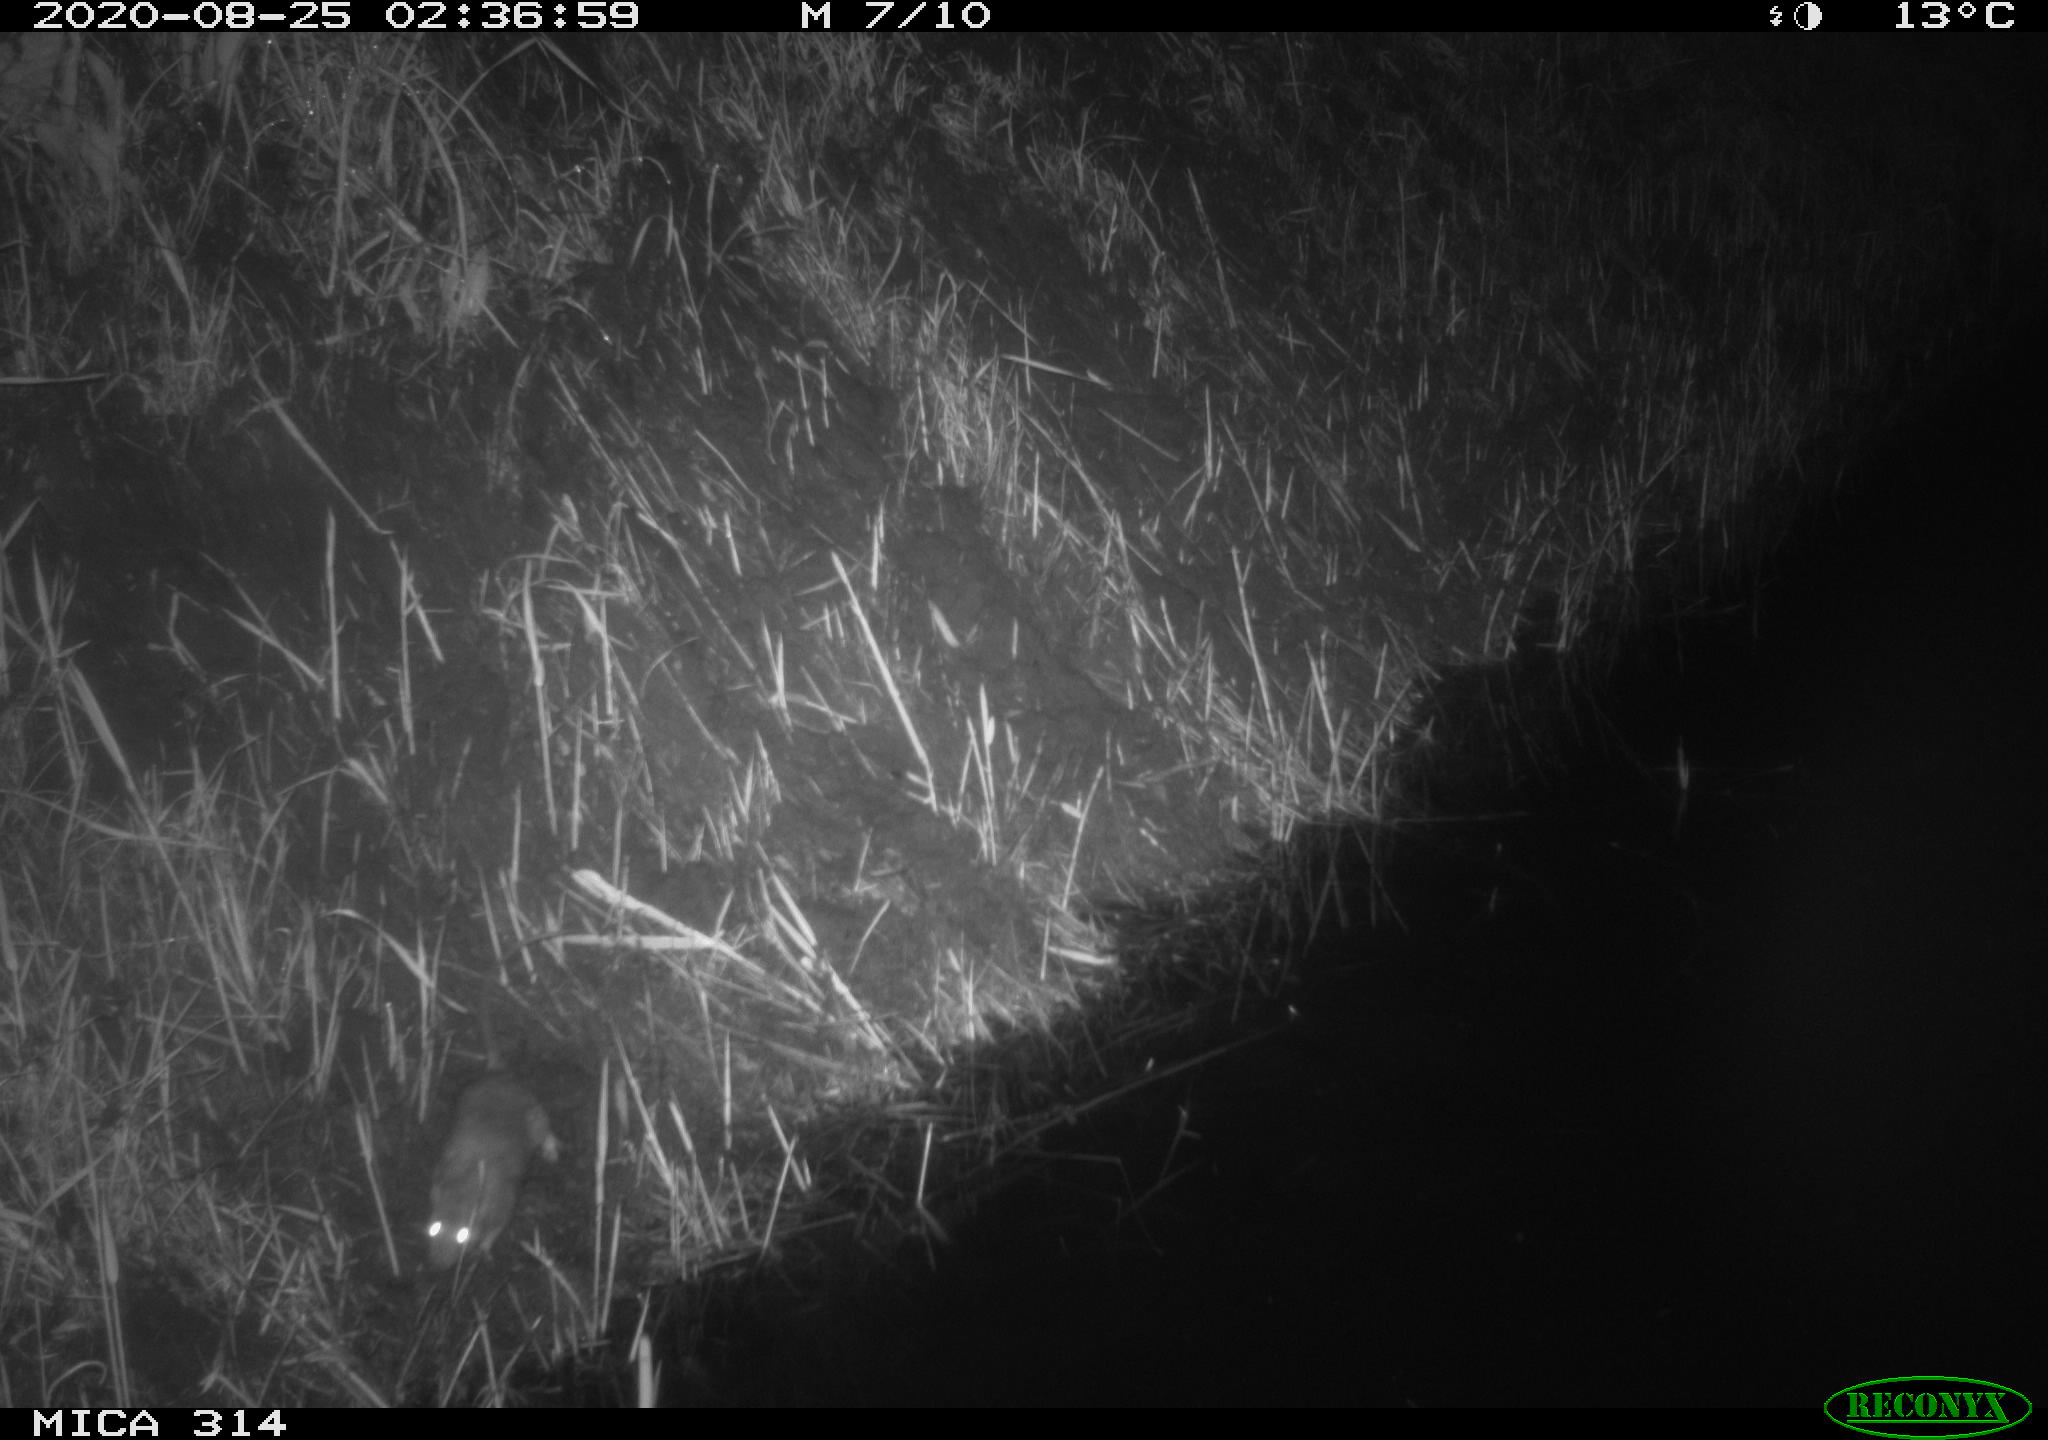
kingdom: Animalia
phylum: Chordata
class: Mammalia
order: Rodentia
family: Muridae
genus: Rattus
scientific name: Rattus norvegicus
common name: Brown rat
